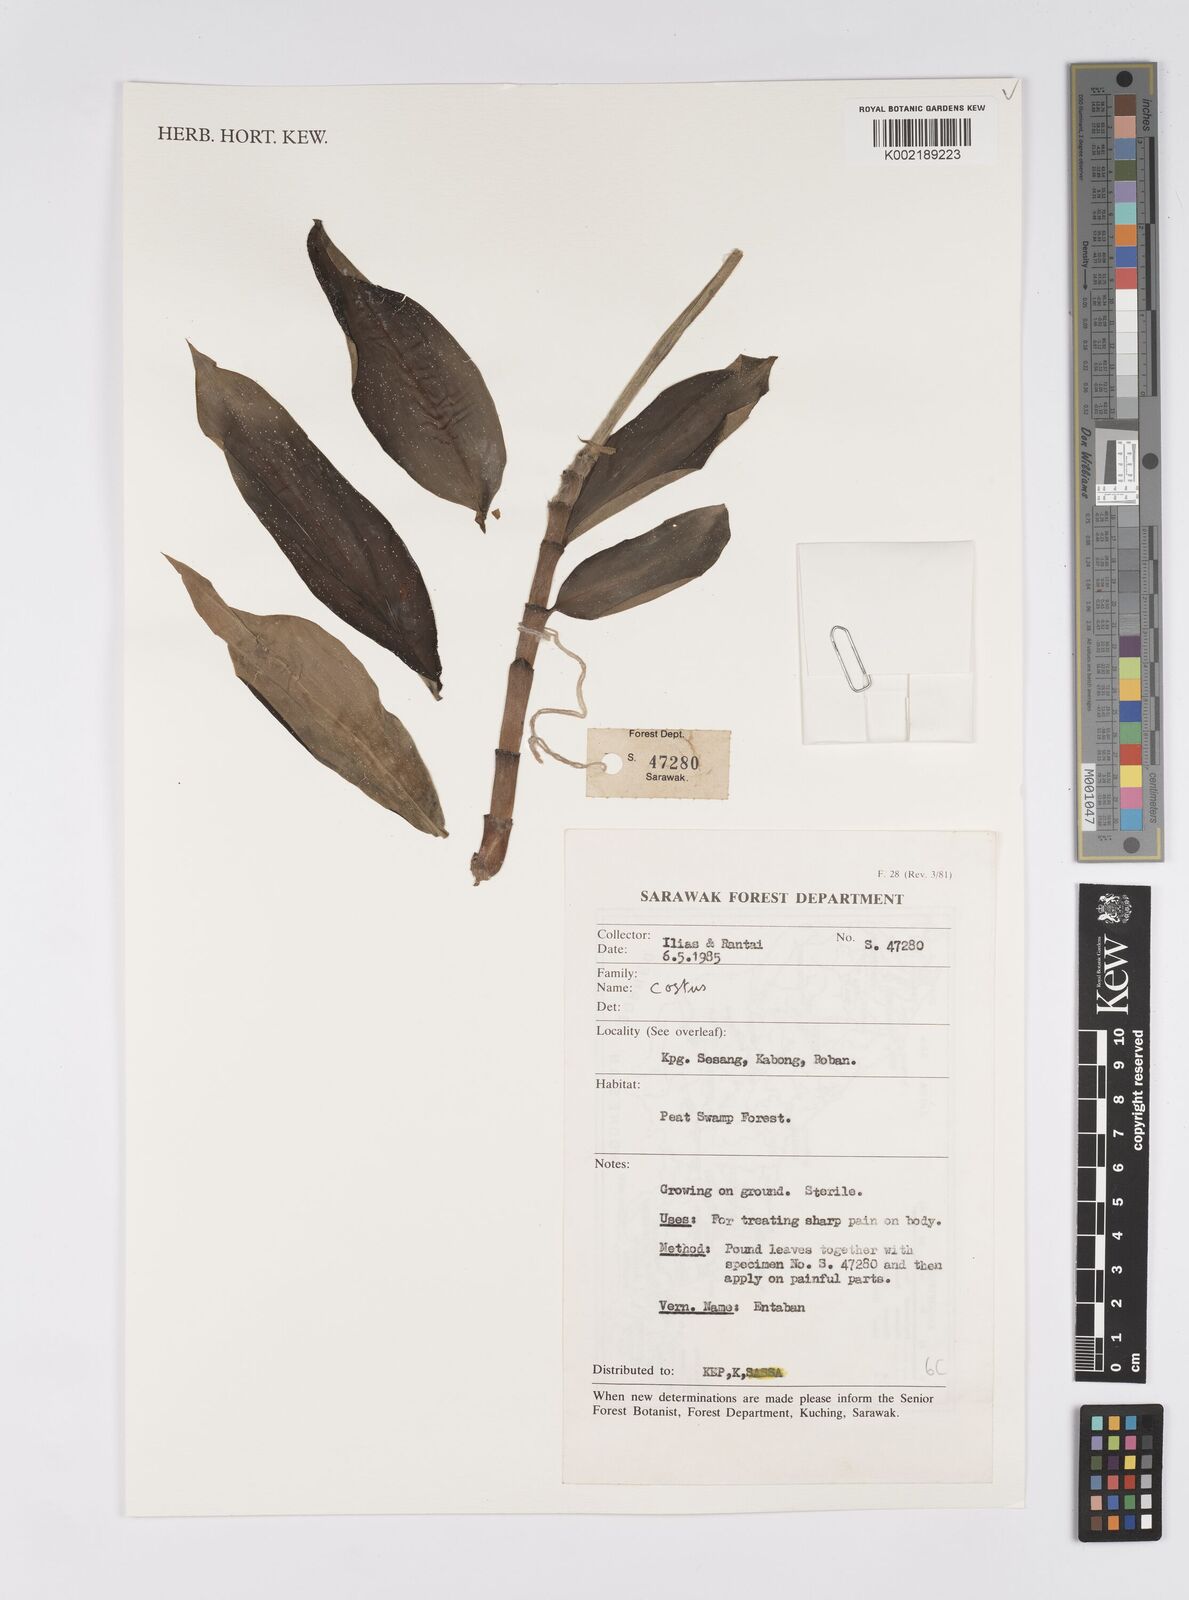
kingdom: Plantae
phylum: Tracheophyta
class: Liliopsida
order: Zingiberales
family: Costaceae
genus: Costus
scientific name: Costus
